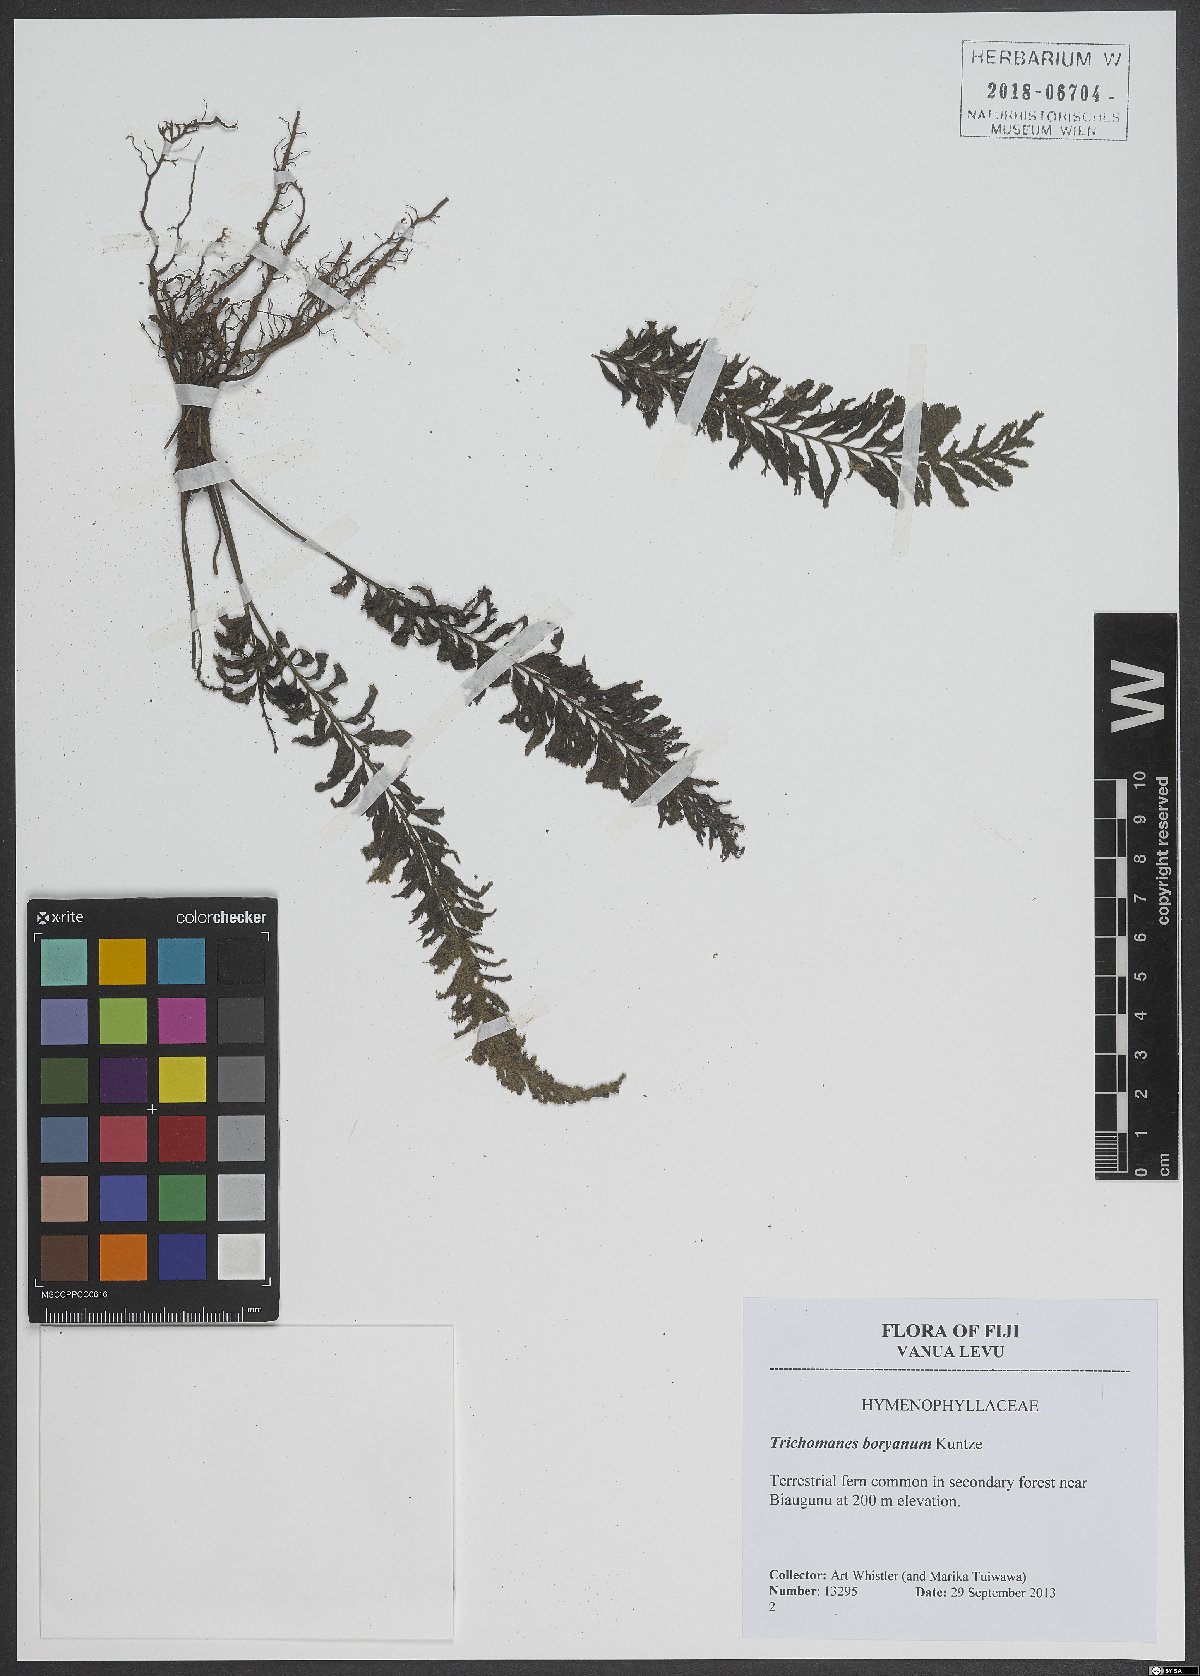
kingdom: Plantae
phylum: Tracheophyta
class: Polypodiopsida
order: Hymenophyllales
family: Hymenophyllaceae
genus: Cephalomanes
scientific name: Cephalomanes boryanum
